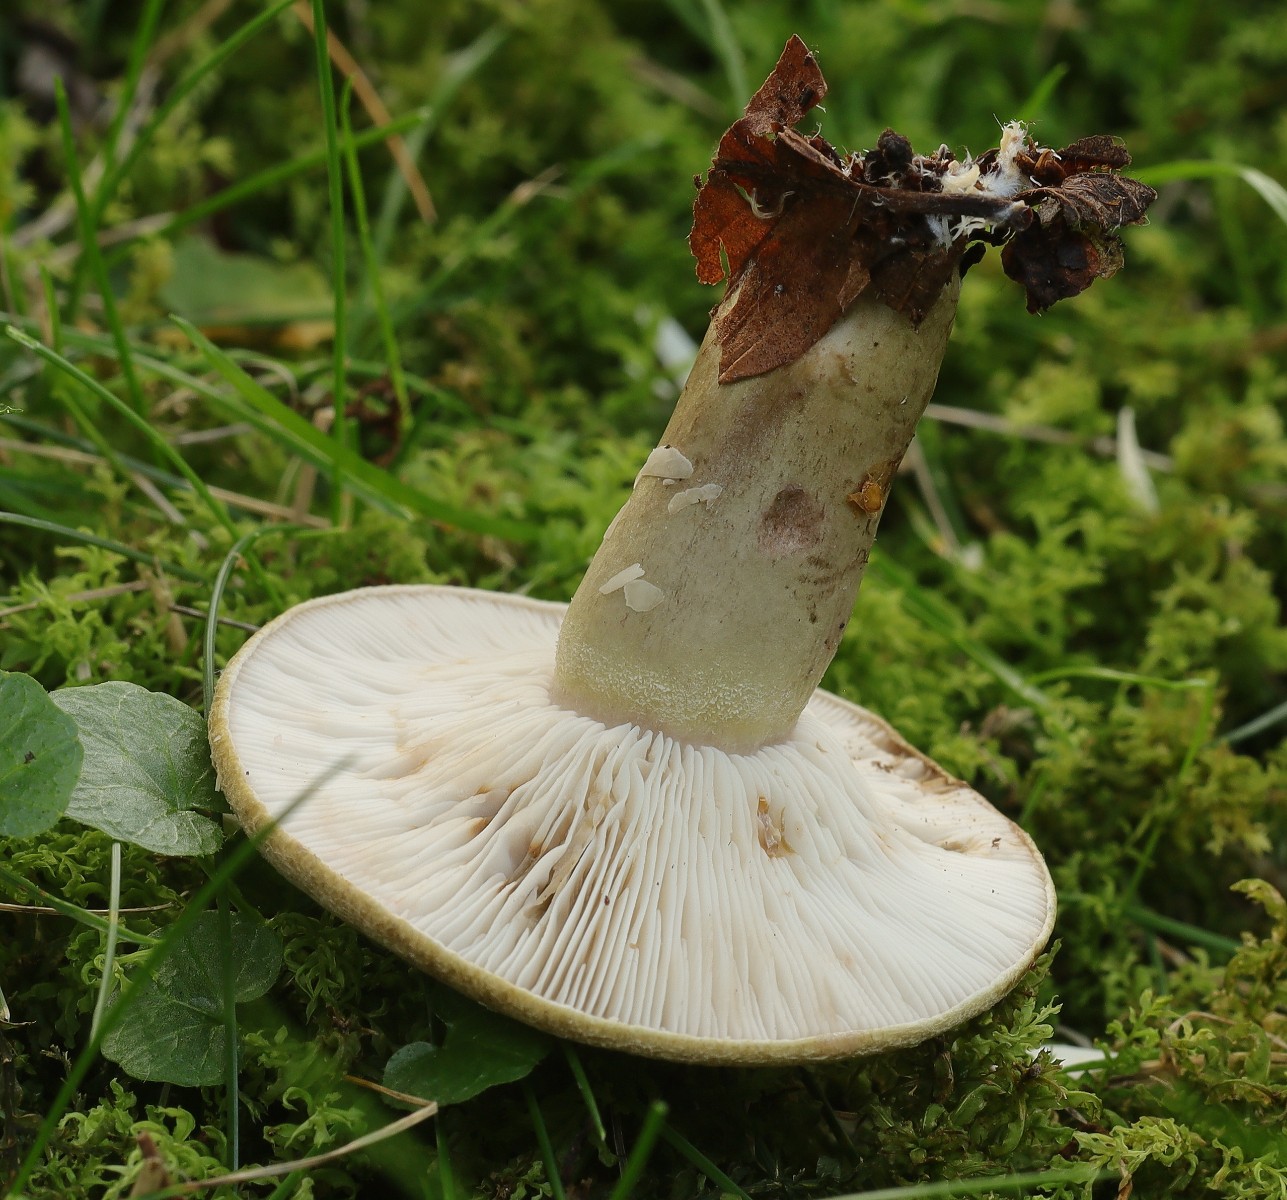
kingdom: Fungi
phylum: Basidiomycota
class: Agaricomycetes
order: Russulales
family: Russulaceae
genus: Lactarius
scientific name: Lactarius blennius
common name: dråbeplettet mælkehat
